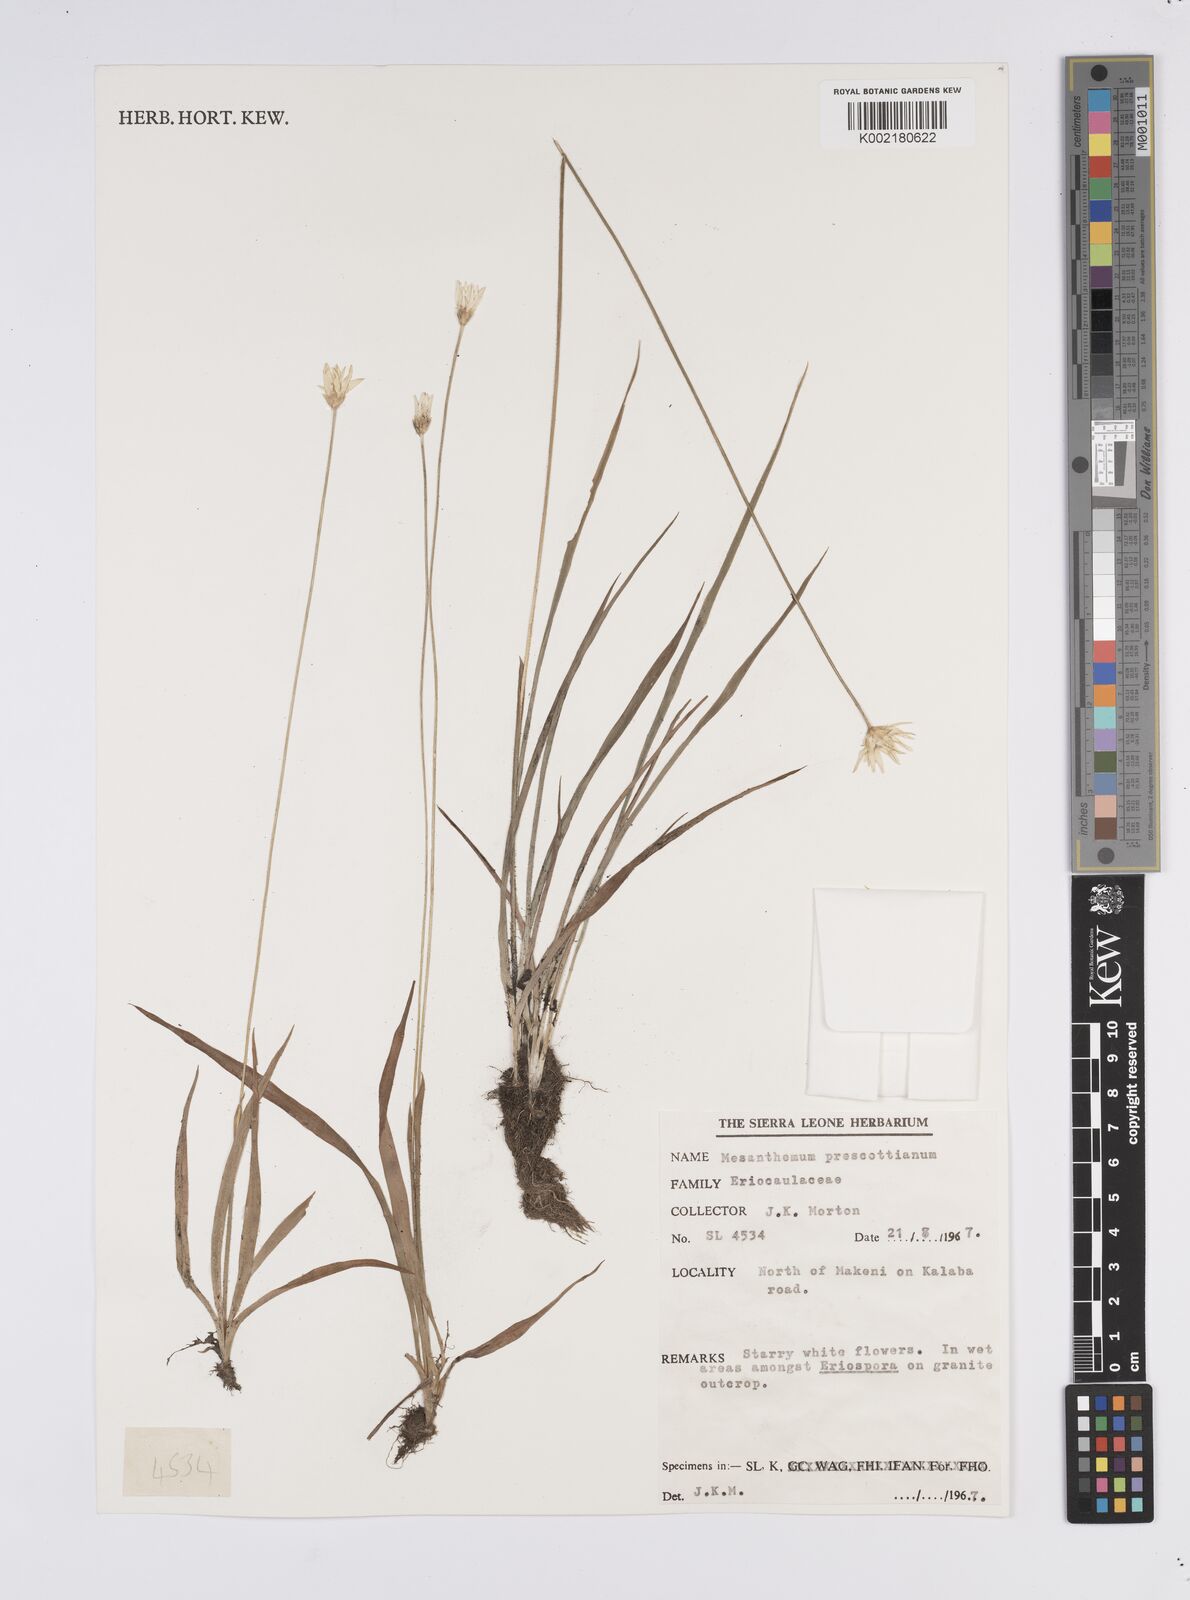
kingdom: Plantae
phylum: Tracheophyta
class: Liliopsida
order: Poales
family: Eriocaulaceae
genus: Mesanthemum
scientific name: Mesanthemum prescottianum
